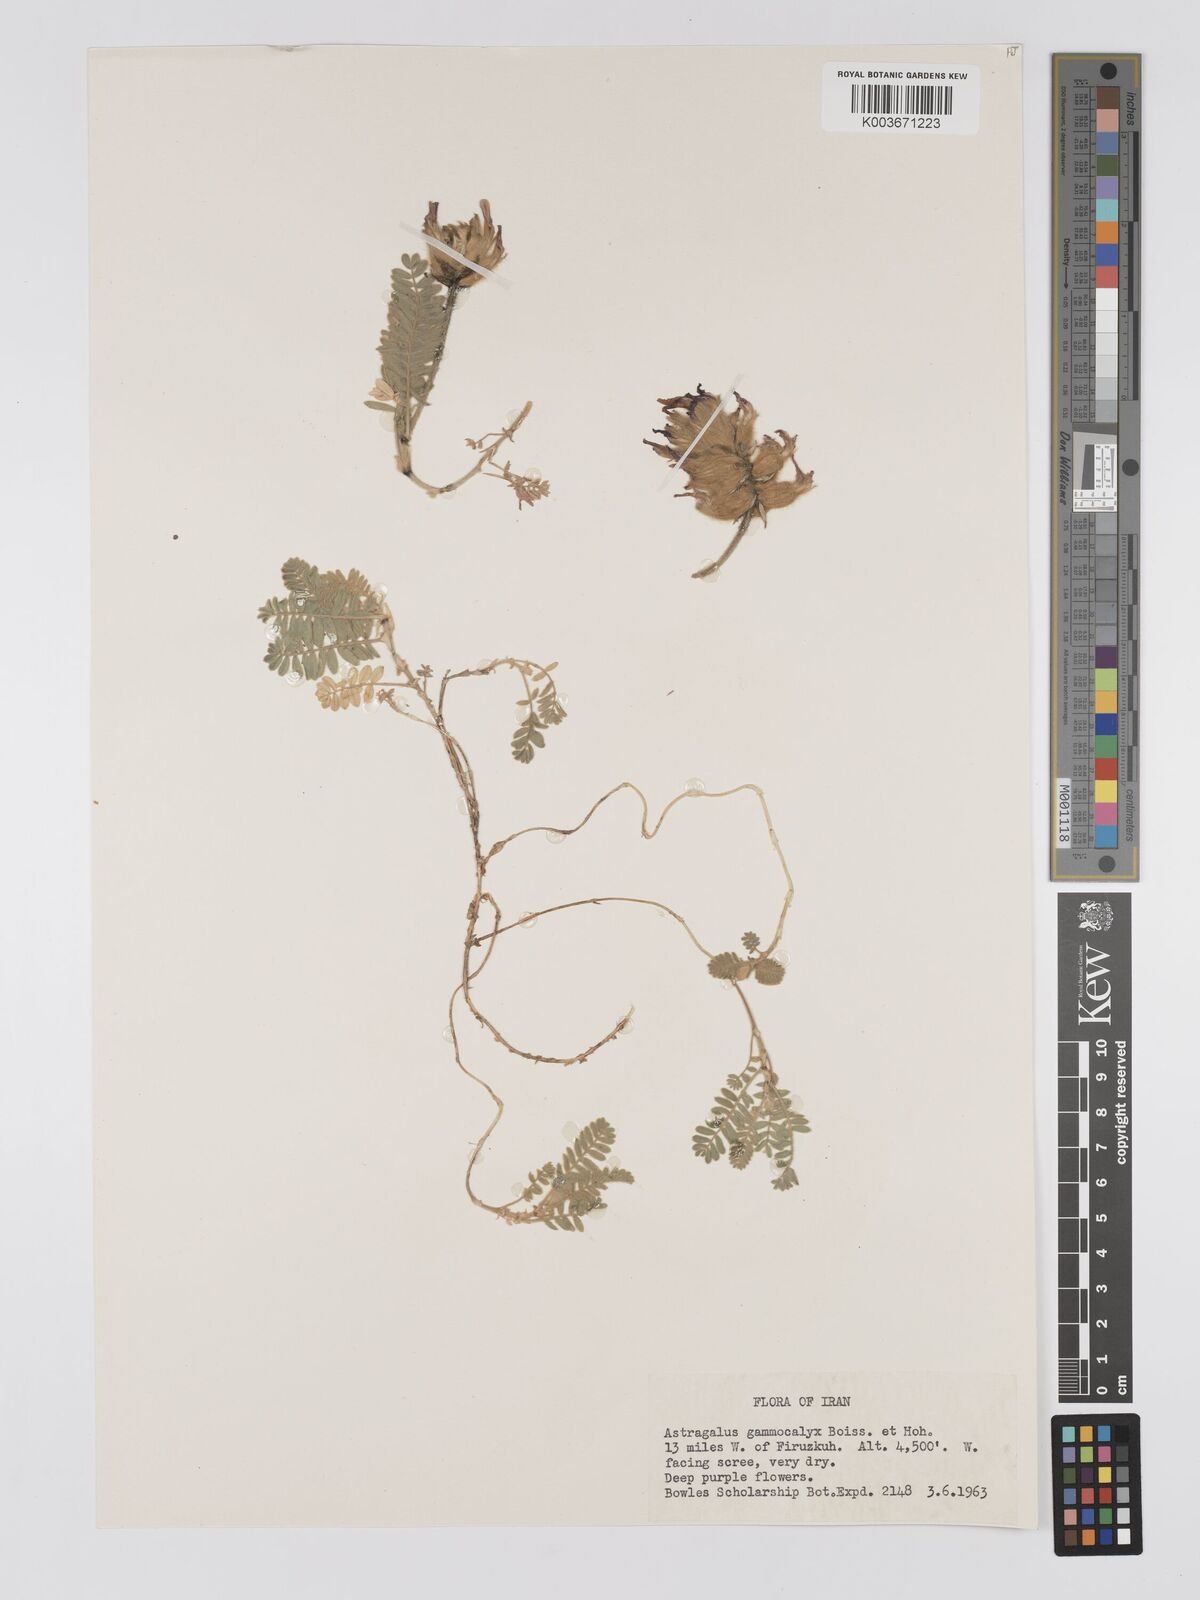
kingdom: Plantae
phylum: Tracheophyta
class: Magnoliopsida
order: Fabales
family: Fabaceae
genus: Astragalus
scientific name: Astragalus lineatus
